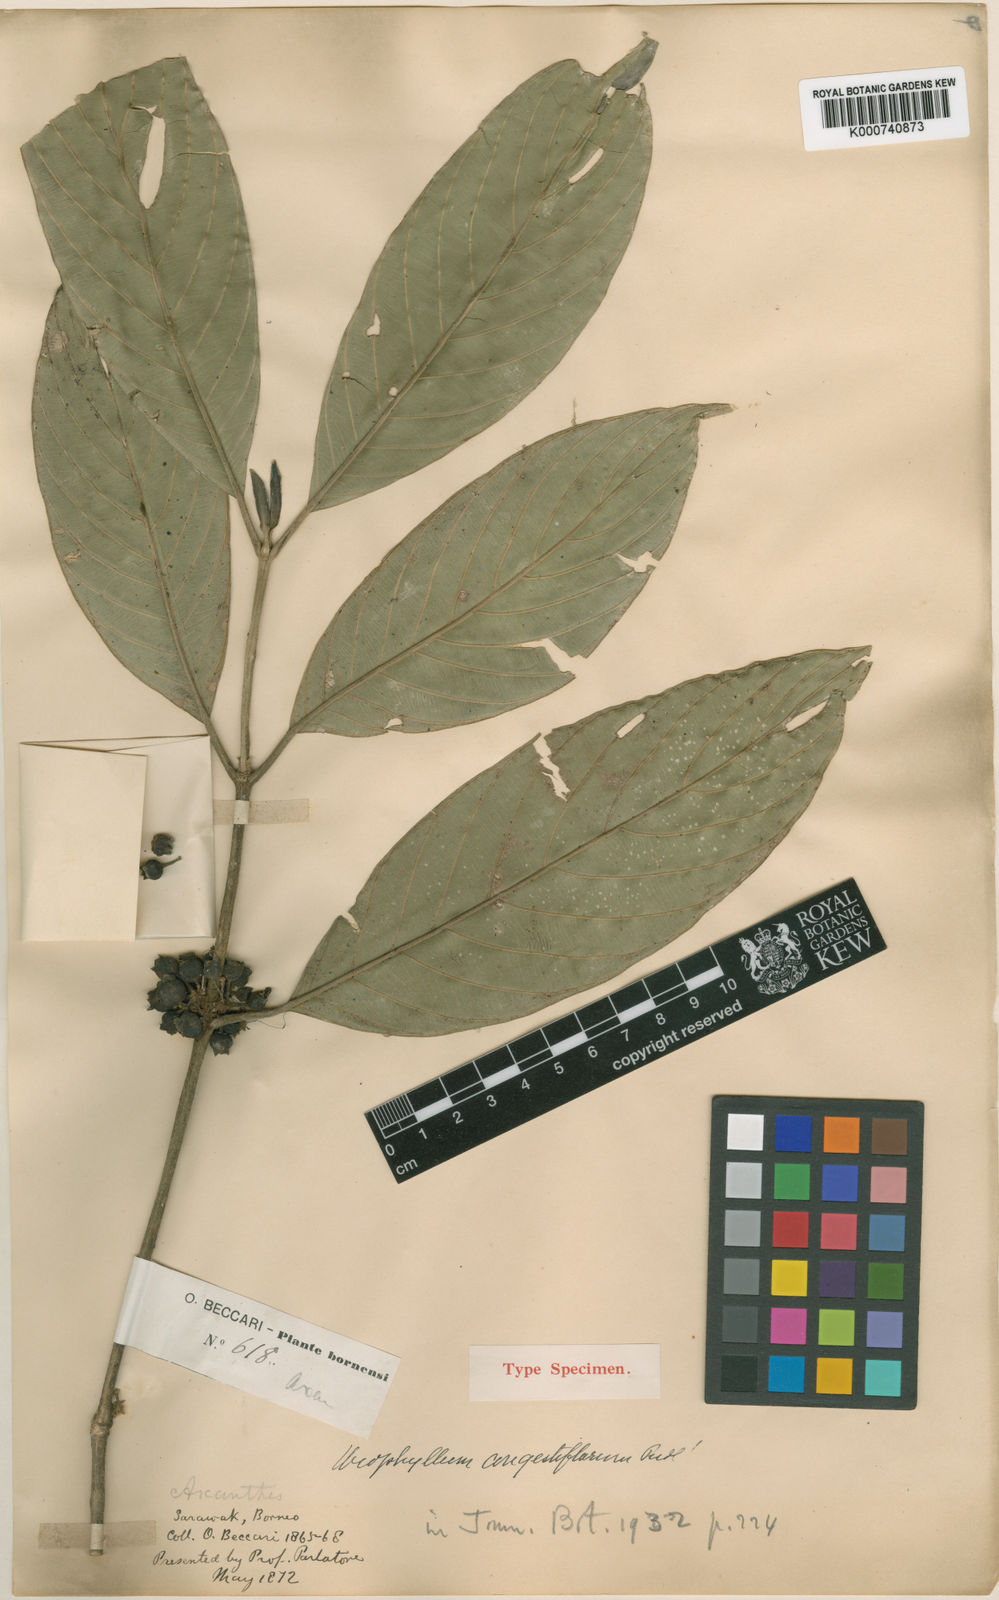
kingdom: Plantae
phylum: Tracheophyta
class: Magnoliopsida
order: Gentianales
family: Rubiaceae
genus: Urophyllum
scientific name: Urophyllum congestiflorum
